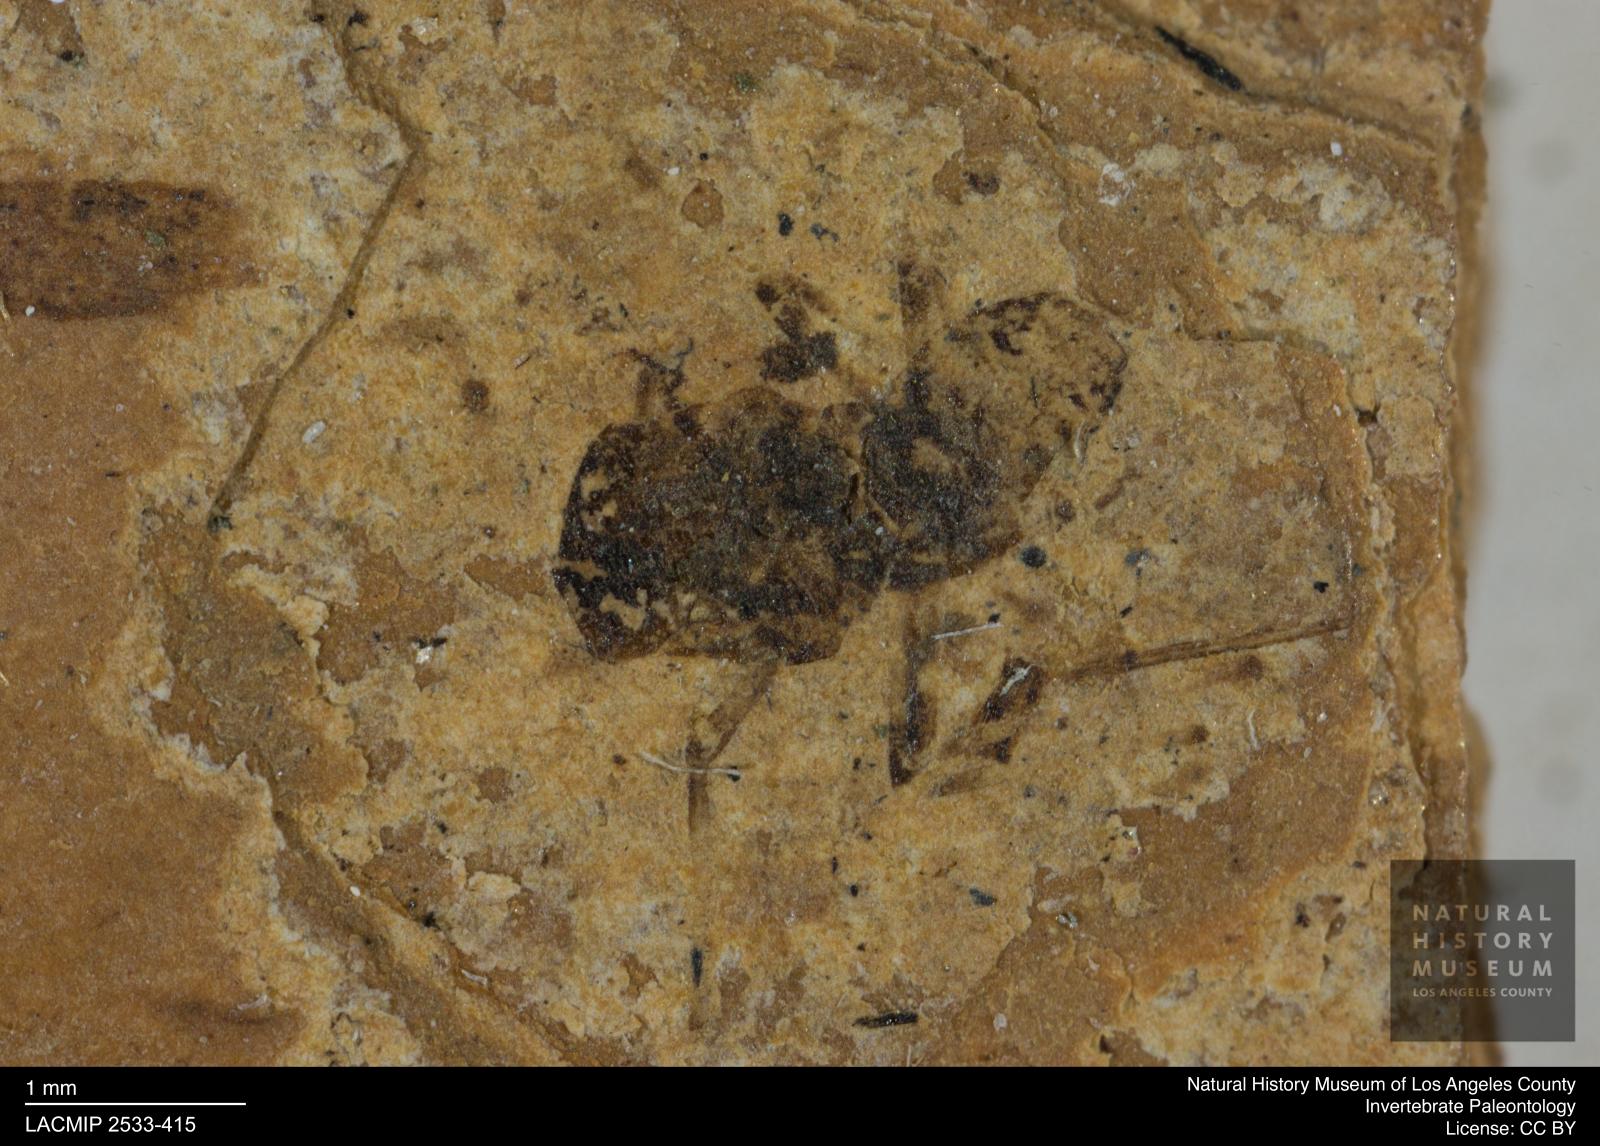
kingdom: Animalia
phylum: Arthropoda
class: Insecta
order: Diptera
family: Chironomidae
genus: Tanypus
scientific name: Tanypus fuscus
